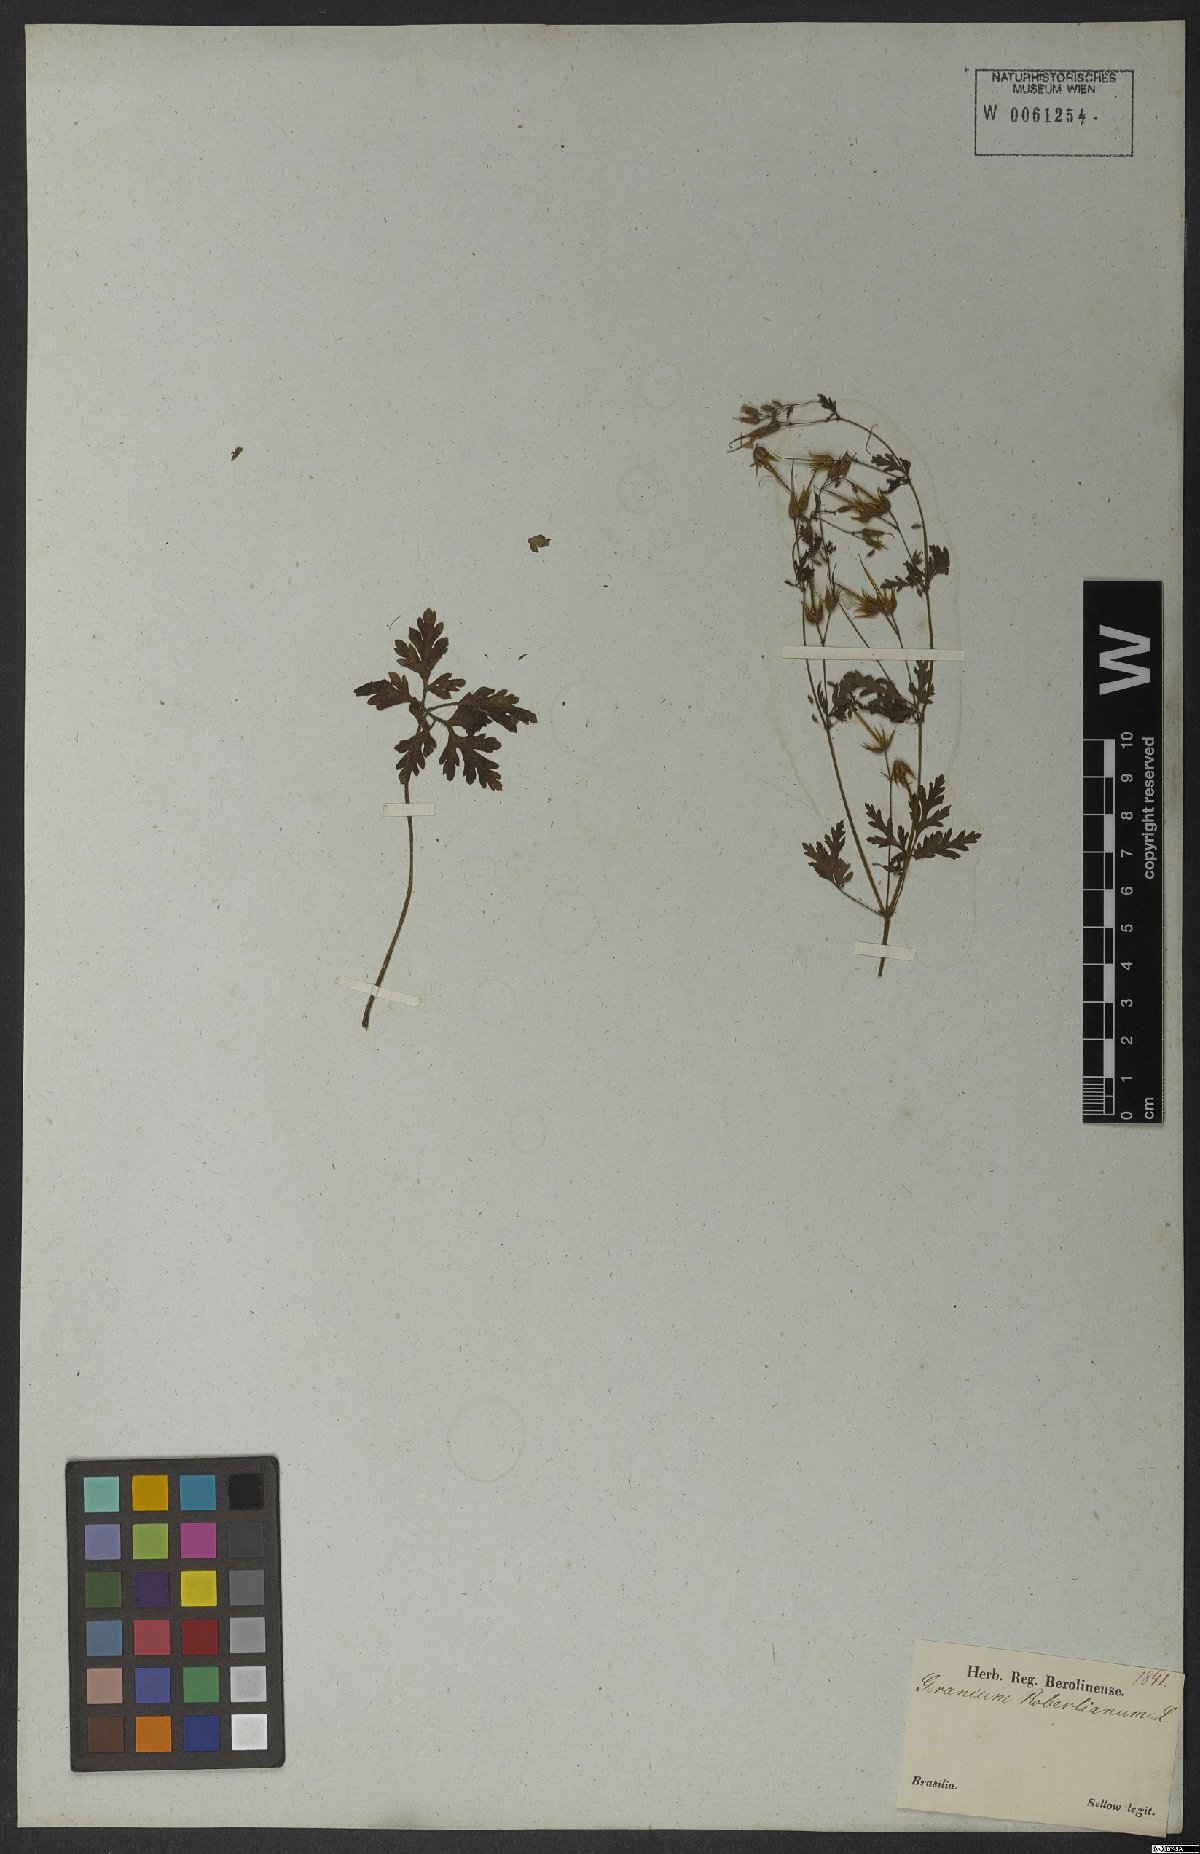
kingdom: Plantae
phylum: Tracheophyta
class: Magnoliopsida
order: Geraniales
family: Geraniaceae
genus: Geranium
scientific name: Geranium robertianum
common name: Herb-robert
